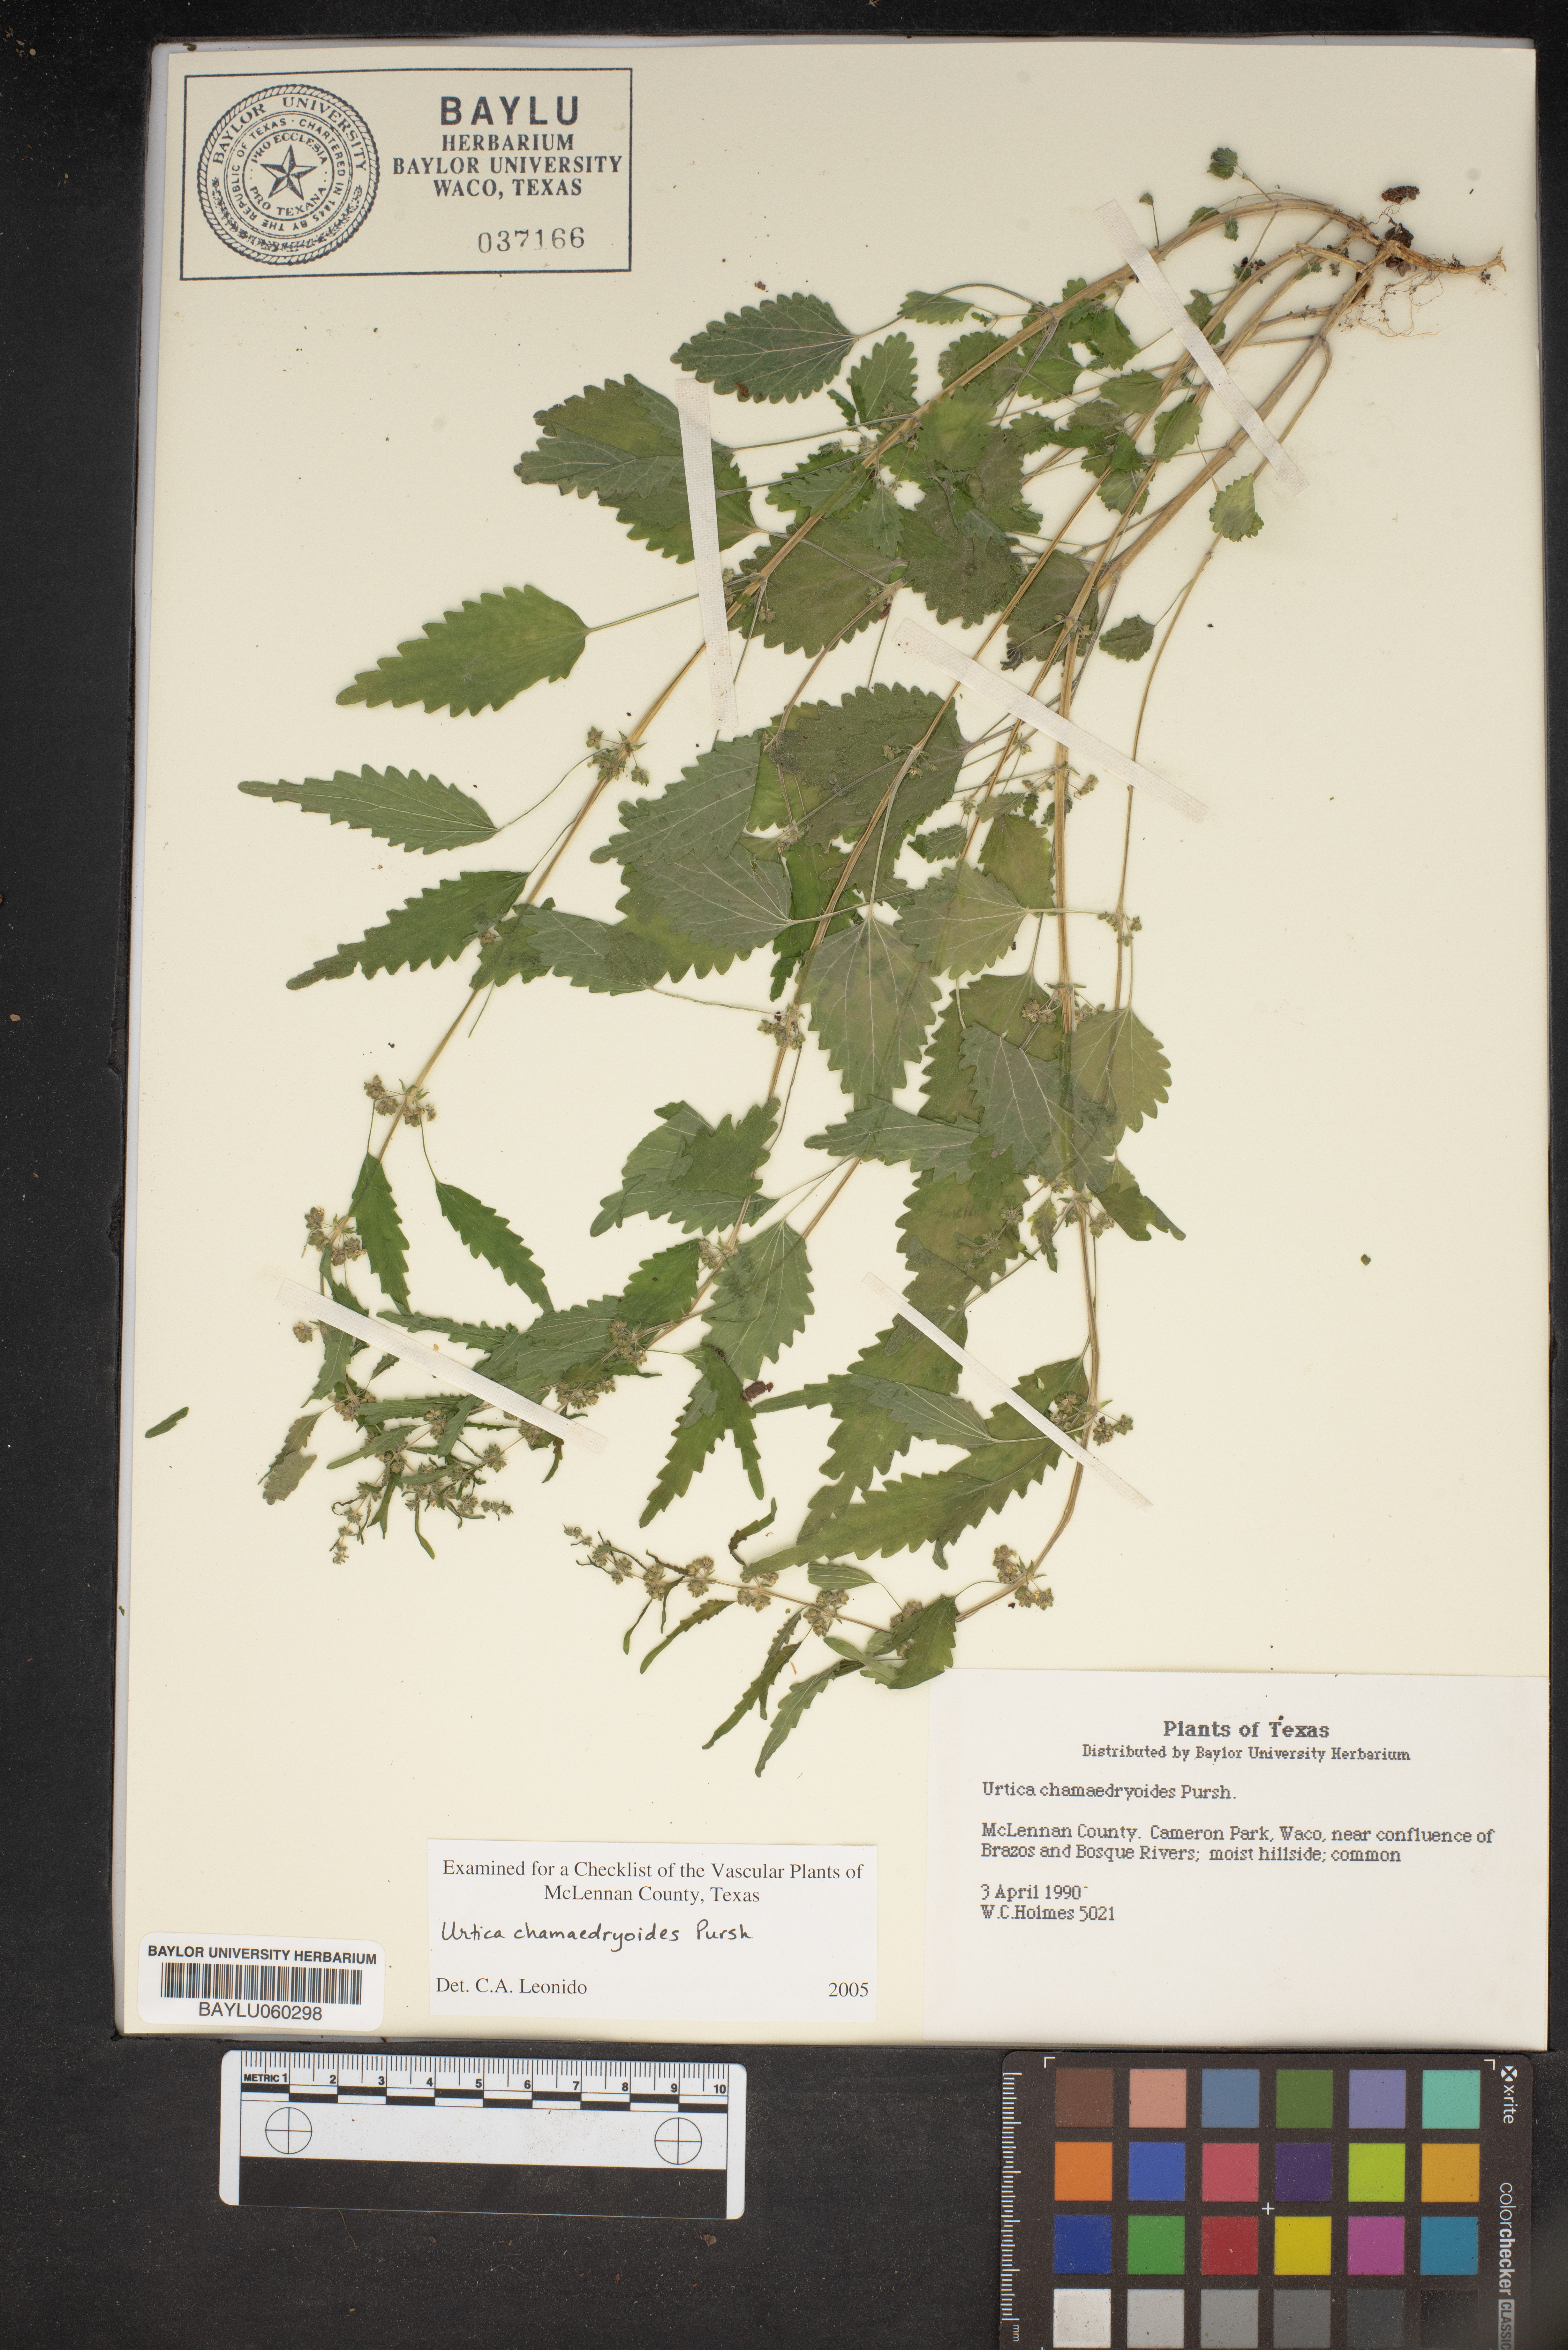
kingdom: Plantae
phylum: Tracheophyta
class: Magnoliopsida
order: Rosales
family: Urticaceae
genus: Urtica
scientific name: Urtica chamaedryoides
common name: Heart-leaf nettle
